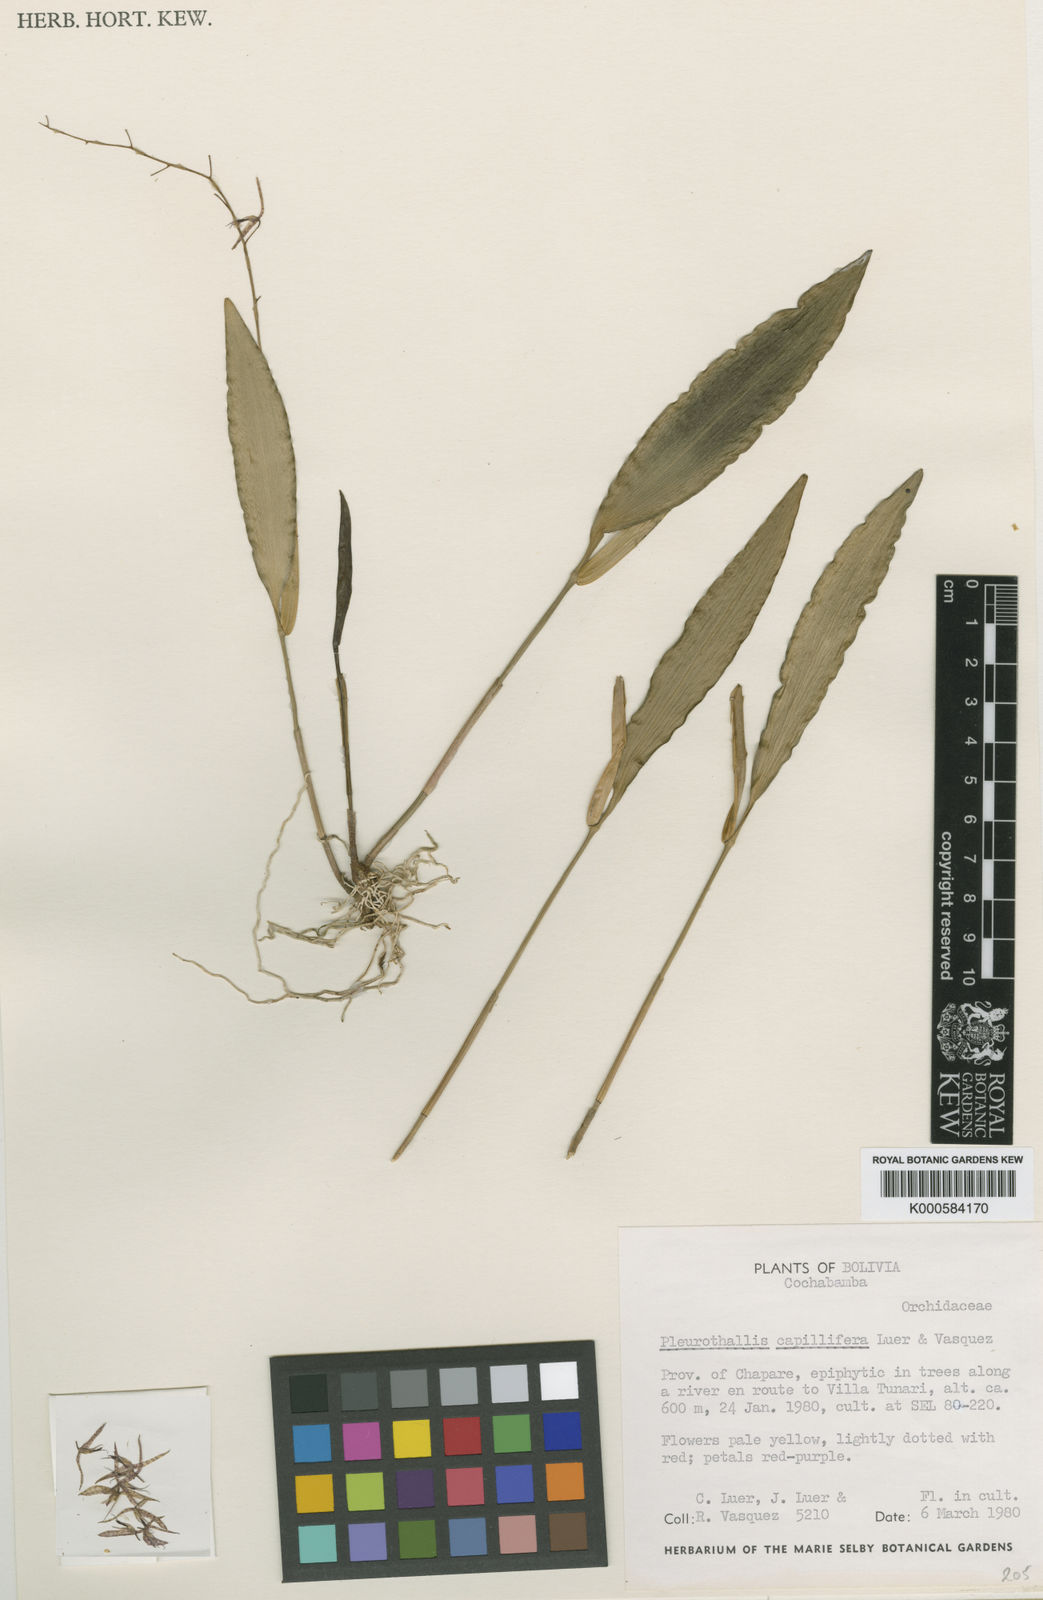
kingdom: Plantae
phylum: Tracheophyta
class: Liliopsida
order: Asparagales
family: Orchidaceae
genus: Pleurothallis
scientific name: Pleurothallis
